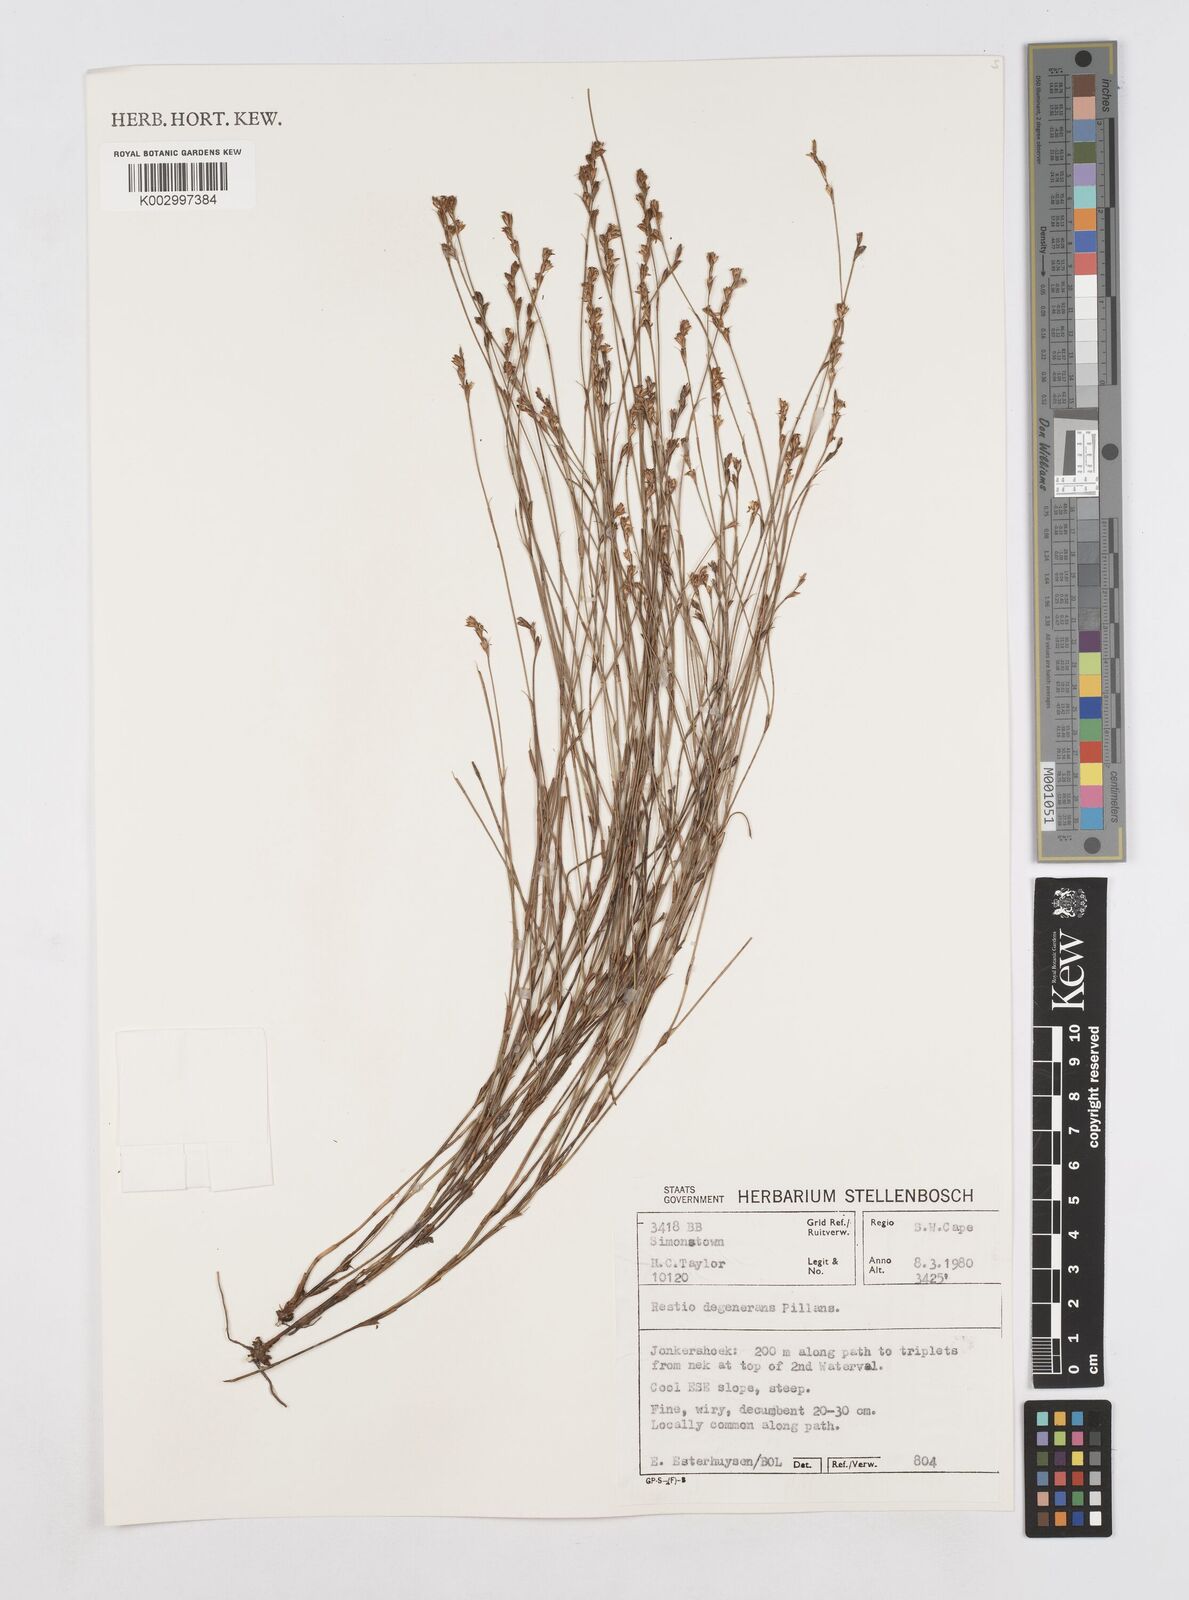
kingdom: Plantae
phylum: Tracheophyta
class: Liliopsida
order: Poales
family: Restionaceae
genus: Platycaulos
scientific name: Platycaulos callistachyus
